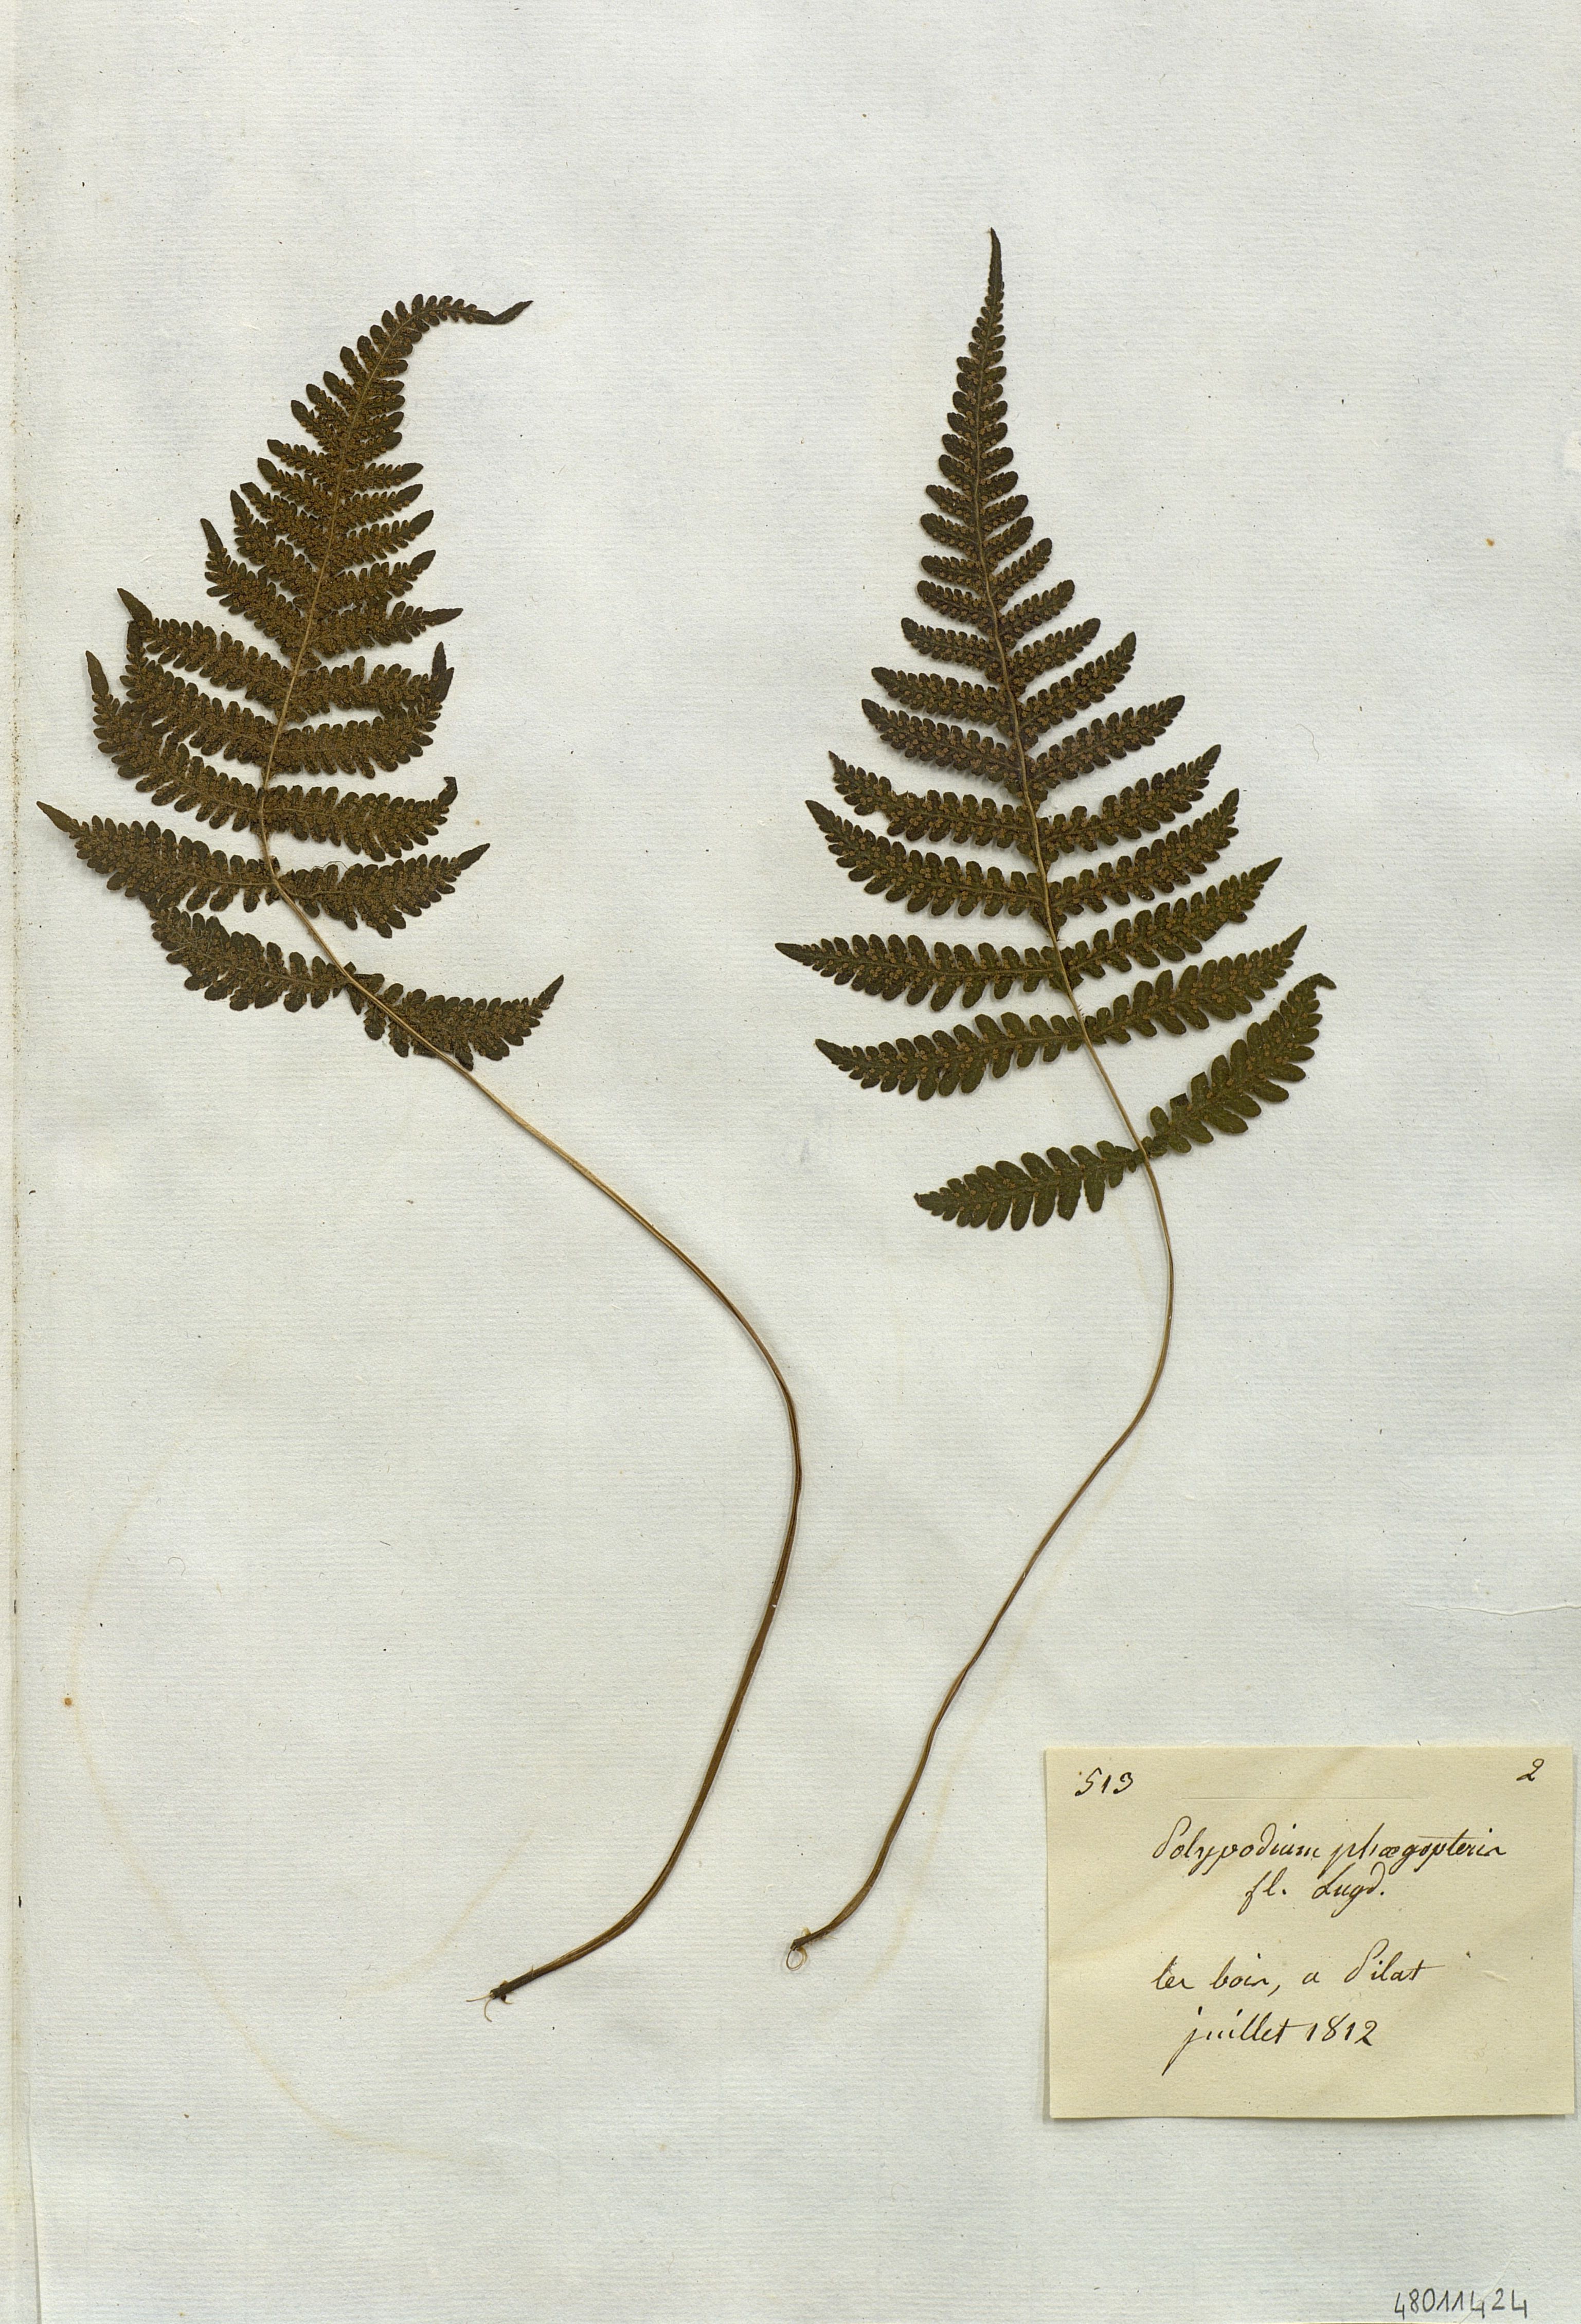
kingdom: Plantae
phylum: Tracheophyta
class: Polypodiopsida
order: Polypodiales
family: Polypodiaceae
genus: Polypodium
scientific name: Polypodium
